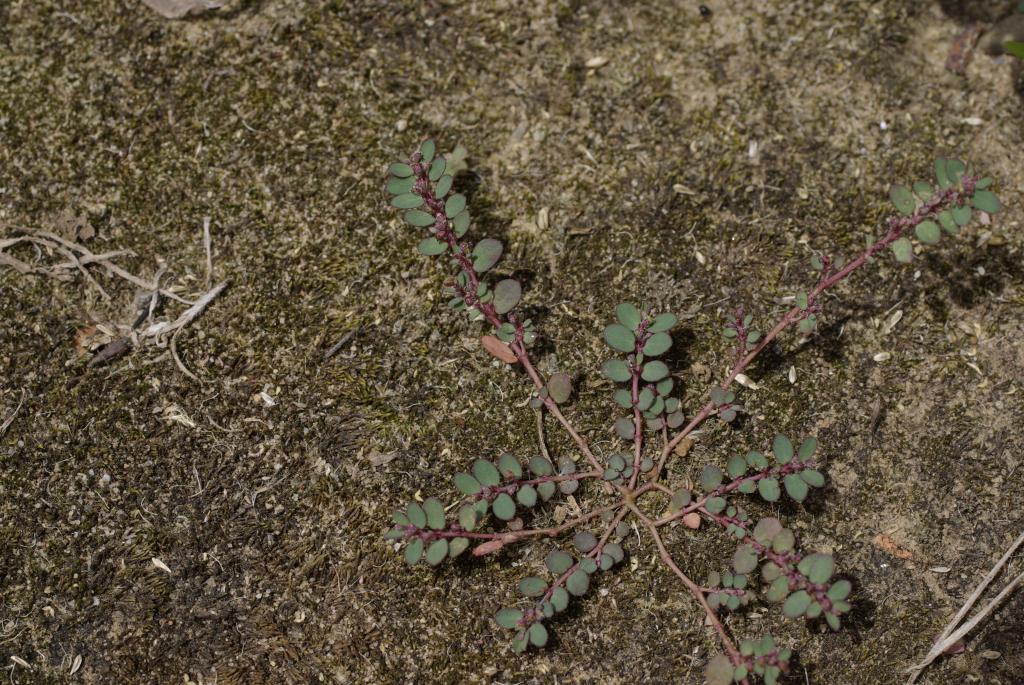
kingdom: Plantae
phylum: Tracheophyta
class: Magnoliopsida
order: Malpighiales
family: Euphorbiaceae
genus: Euphorbia
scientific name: Euphorbia prostrata
